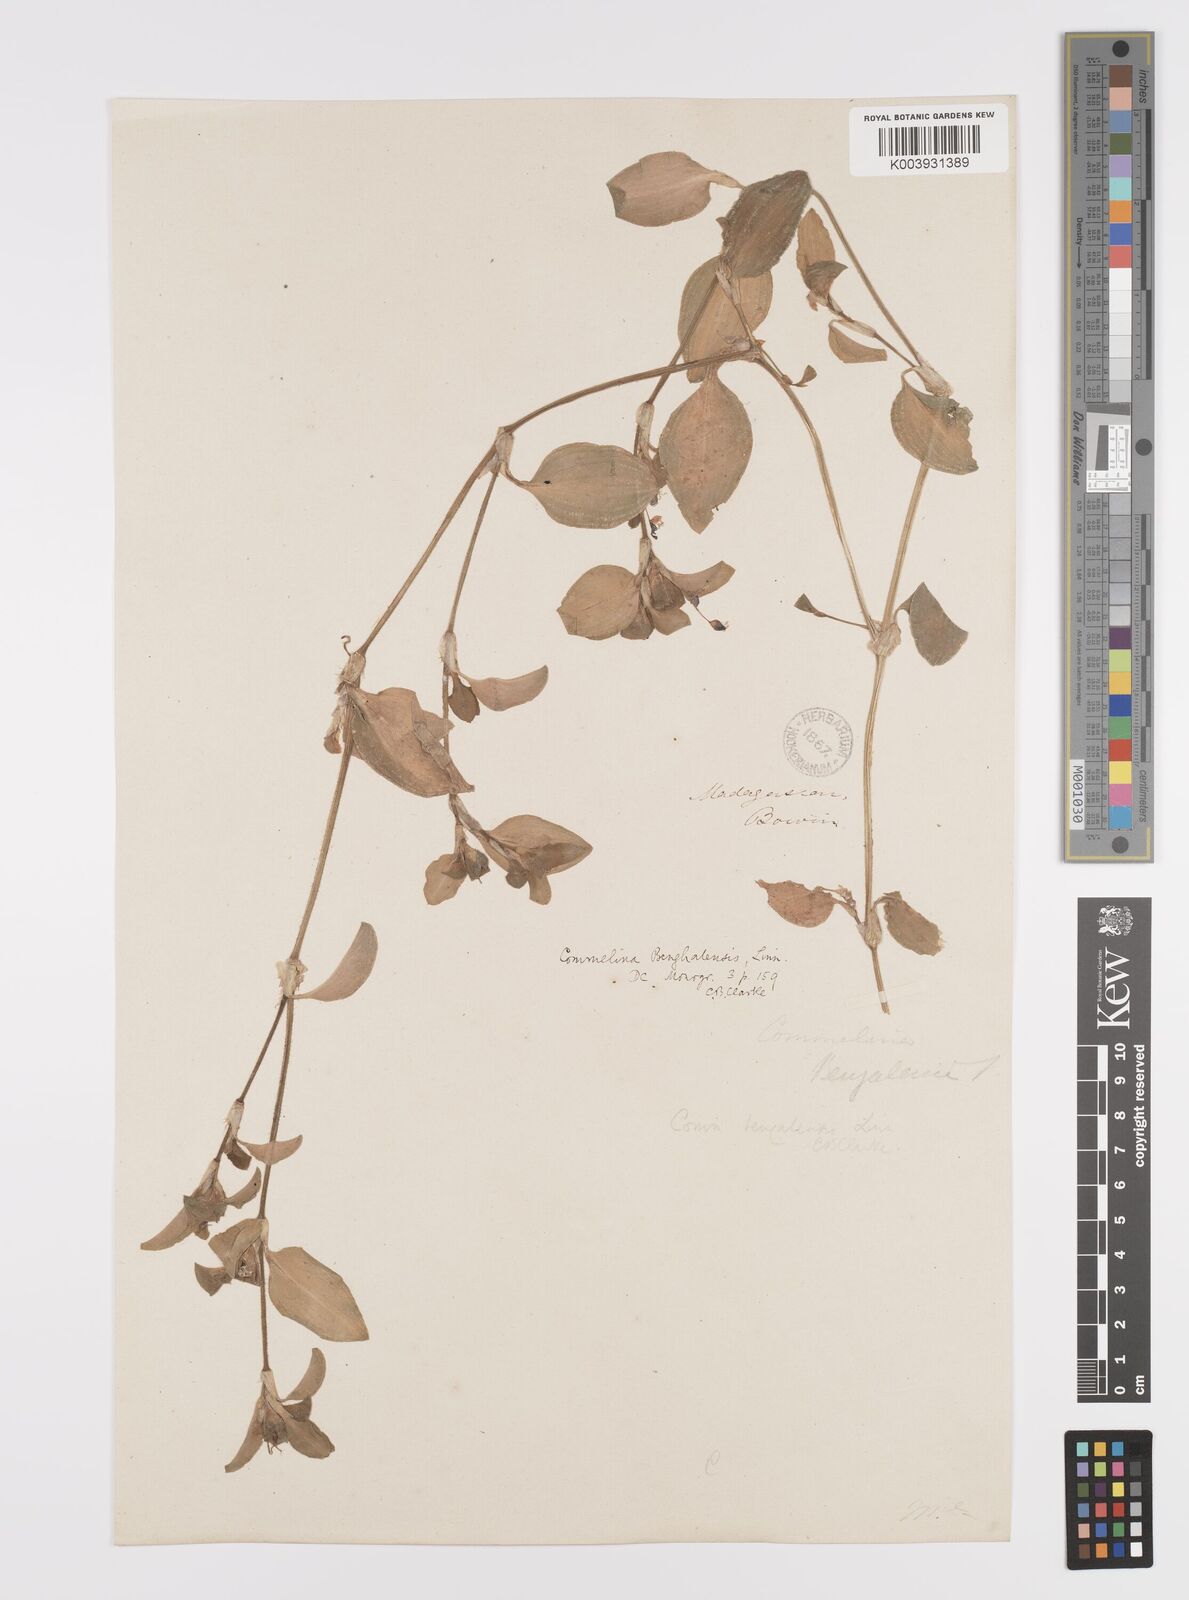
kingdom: Plantae
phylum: Tracheophyta
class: Liliopsida
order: Commelinales
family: Commelinaceae
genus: Commelina
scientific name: Commelina benghalensis
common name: Jio
